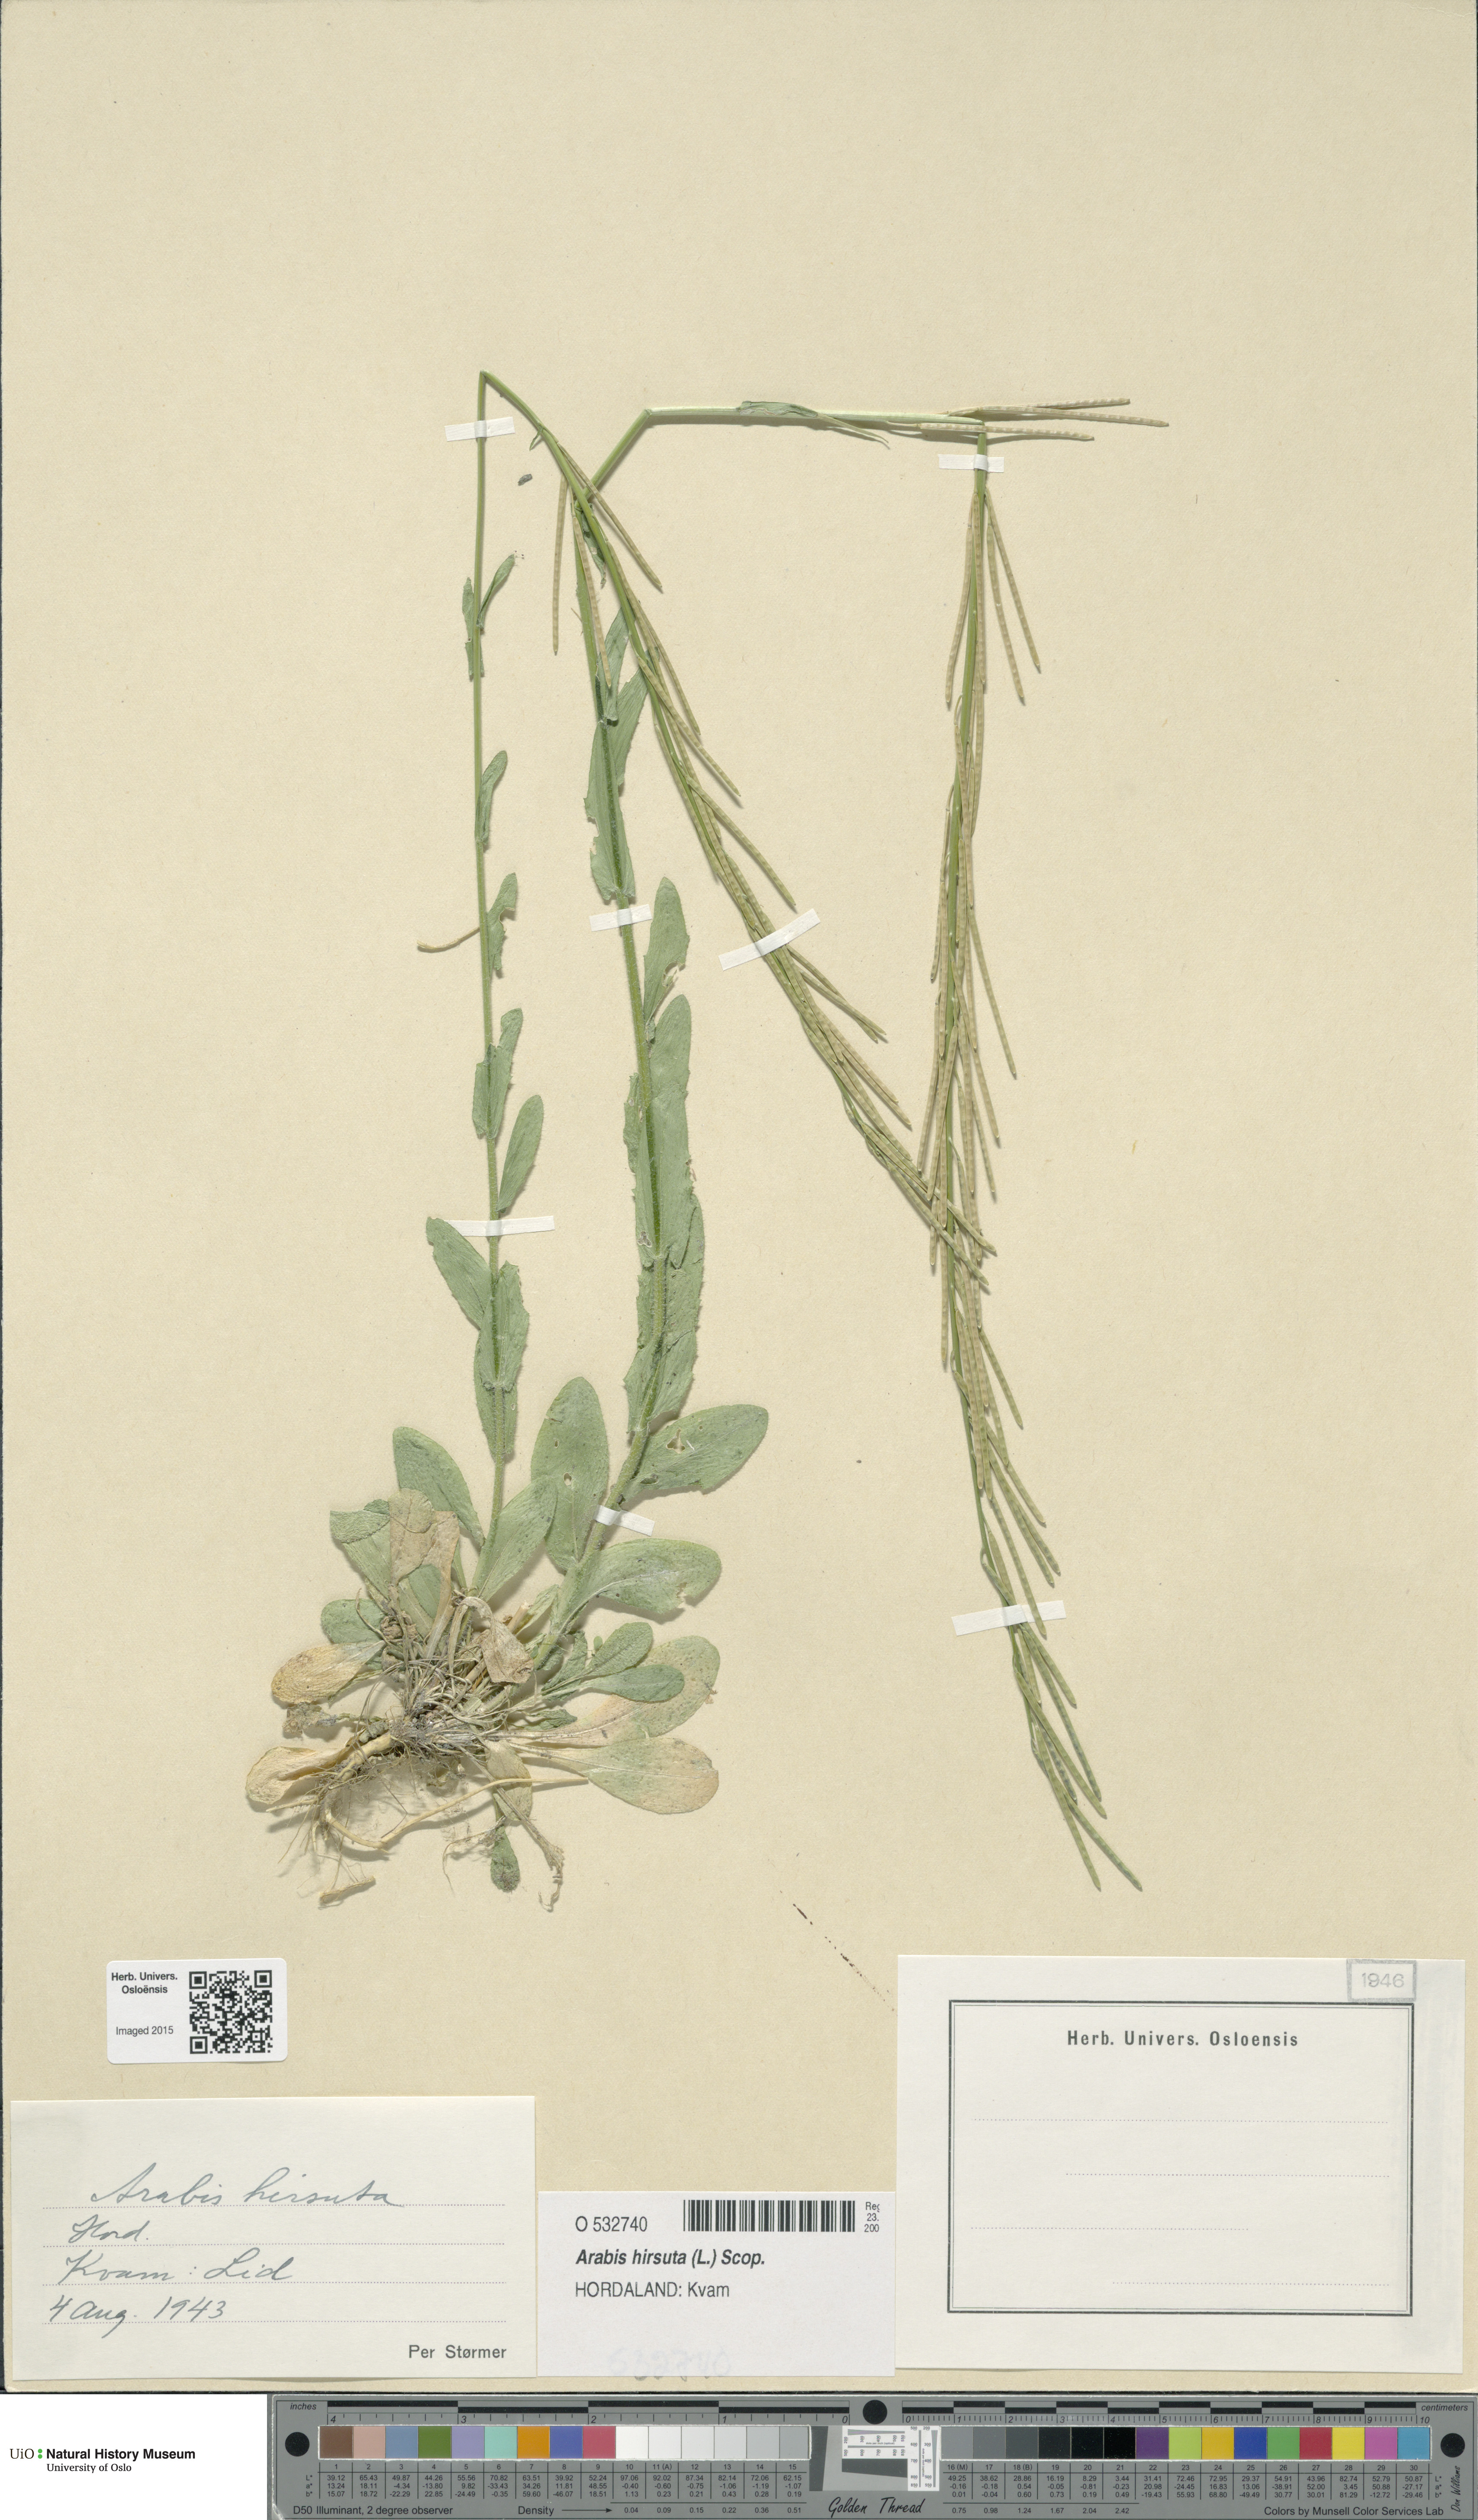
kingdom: Plantae
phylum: Tracheophyta
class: Magnoliopsida
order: Brassicales
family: Brassicaceae
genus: Arabis
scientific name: Arabis hirsuta
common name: Hairy rock-cress
